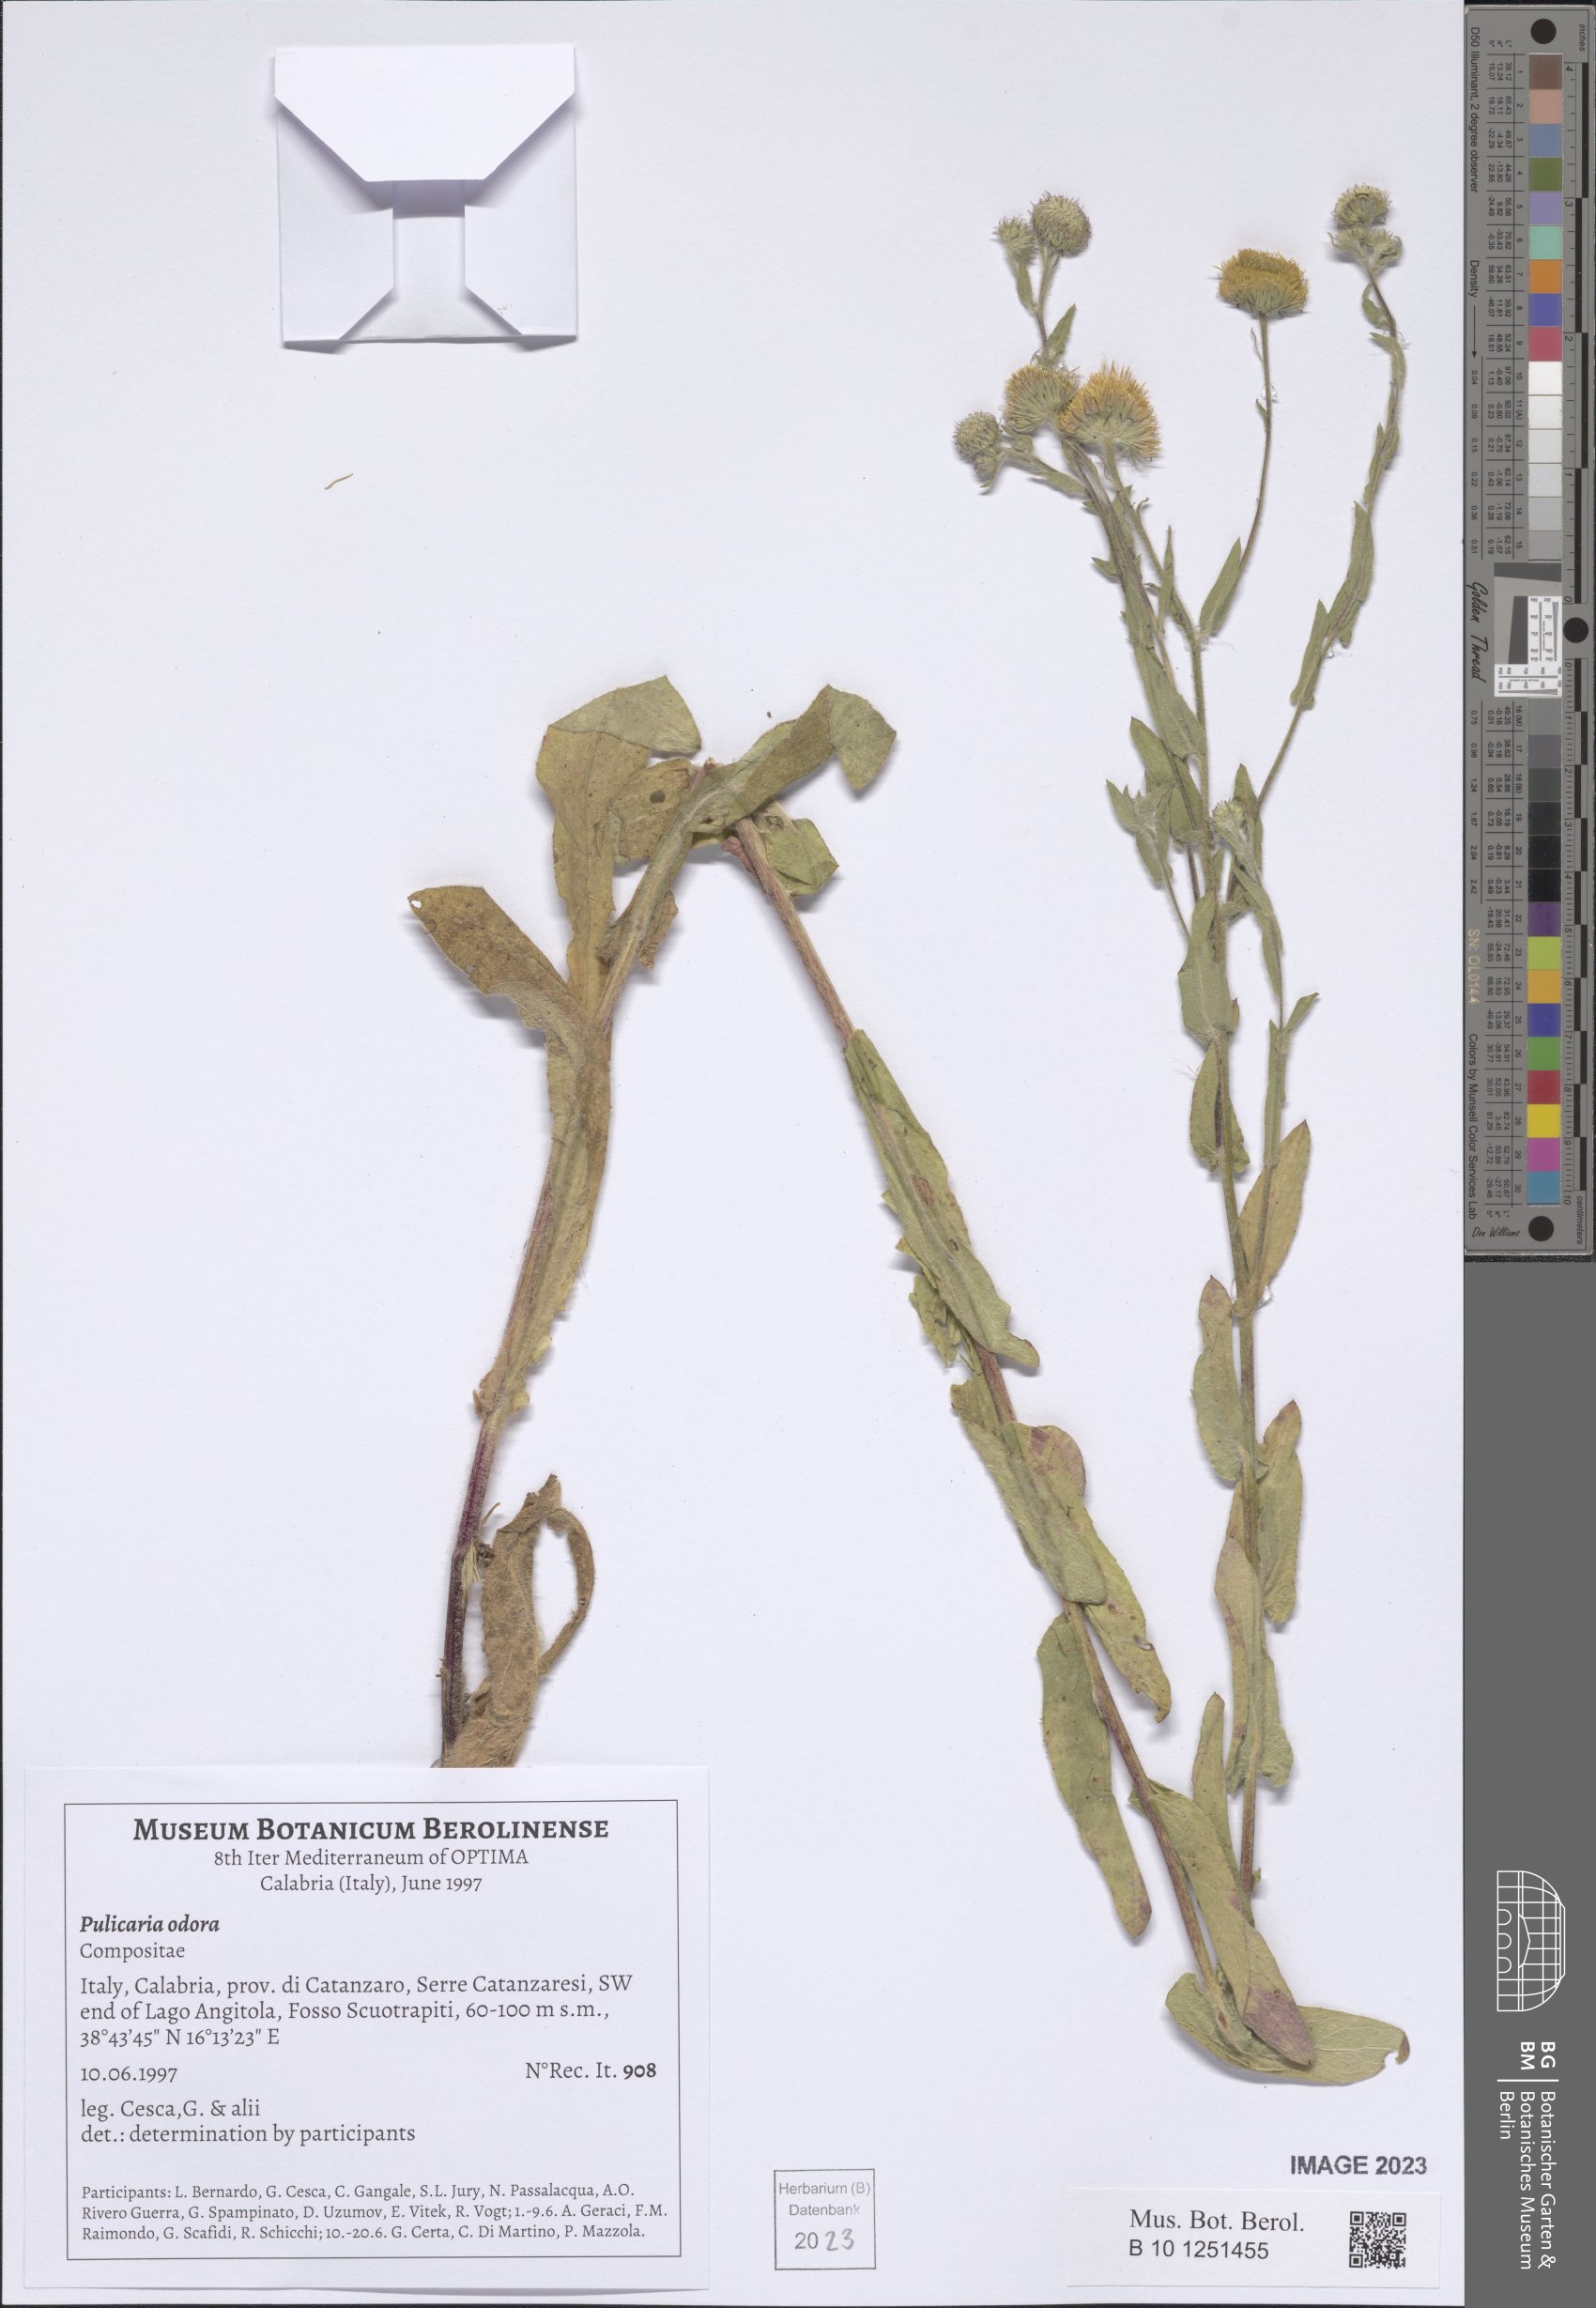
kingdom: Plantae
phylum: Tracheophyta
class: Magnoliopsida
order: Asterales
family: Asteraceae
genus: Pulicaria
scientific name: Pulicaria odora
